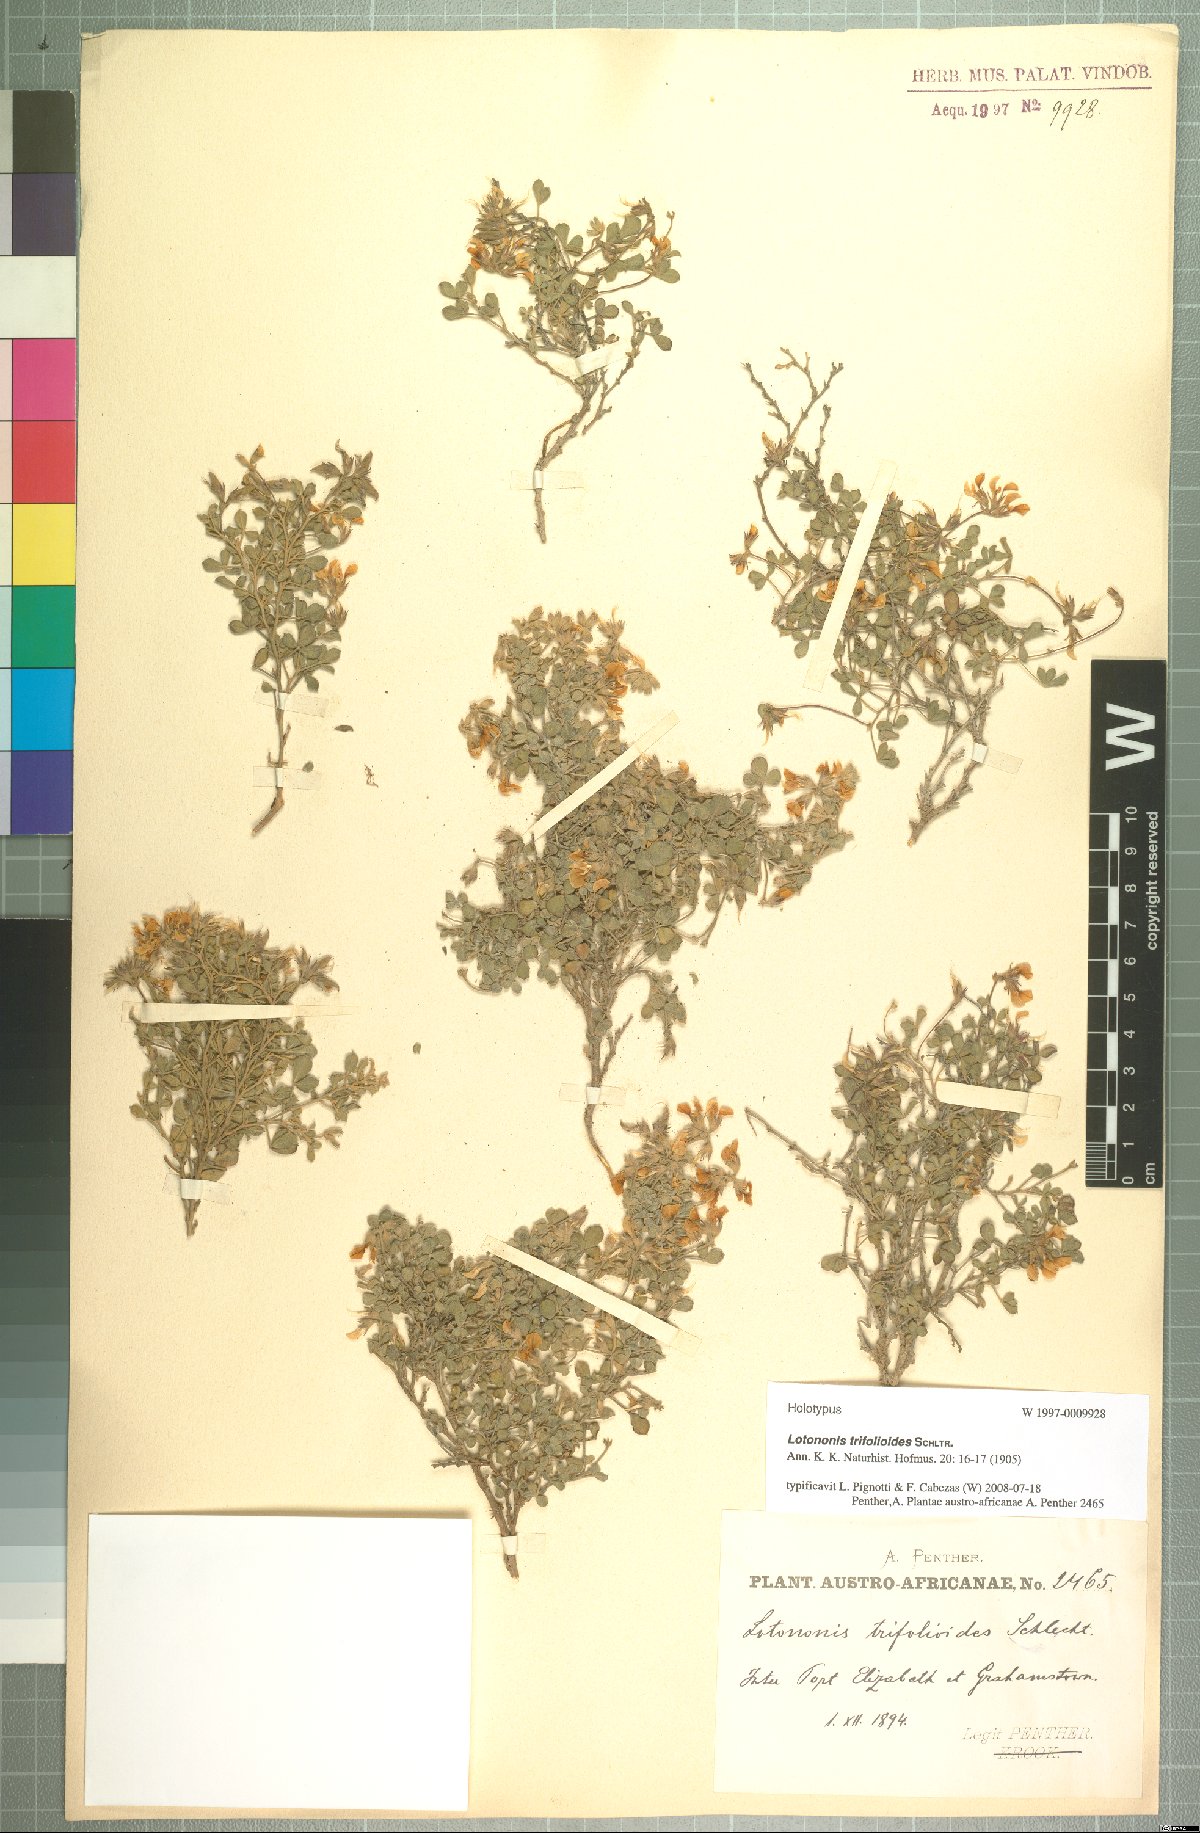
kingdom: Plantae
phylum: Tracheophyta
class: Magnoliopsida
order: Fabales
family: Fabaceae
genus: Lotononis
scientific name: Lotononis glabra
